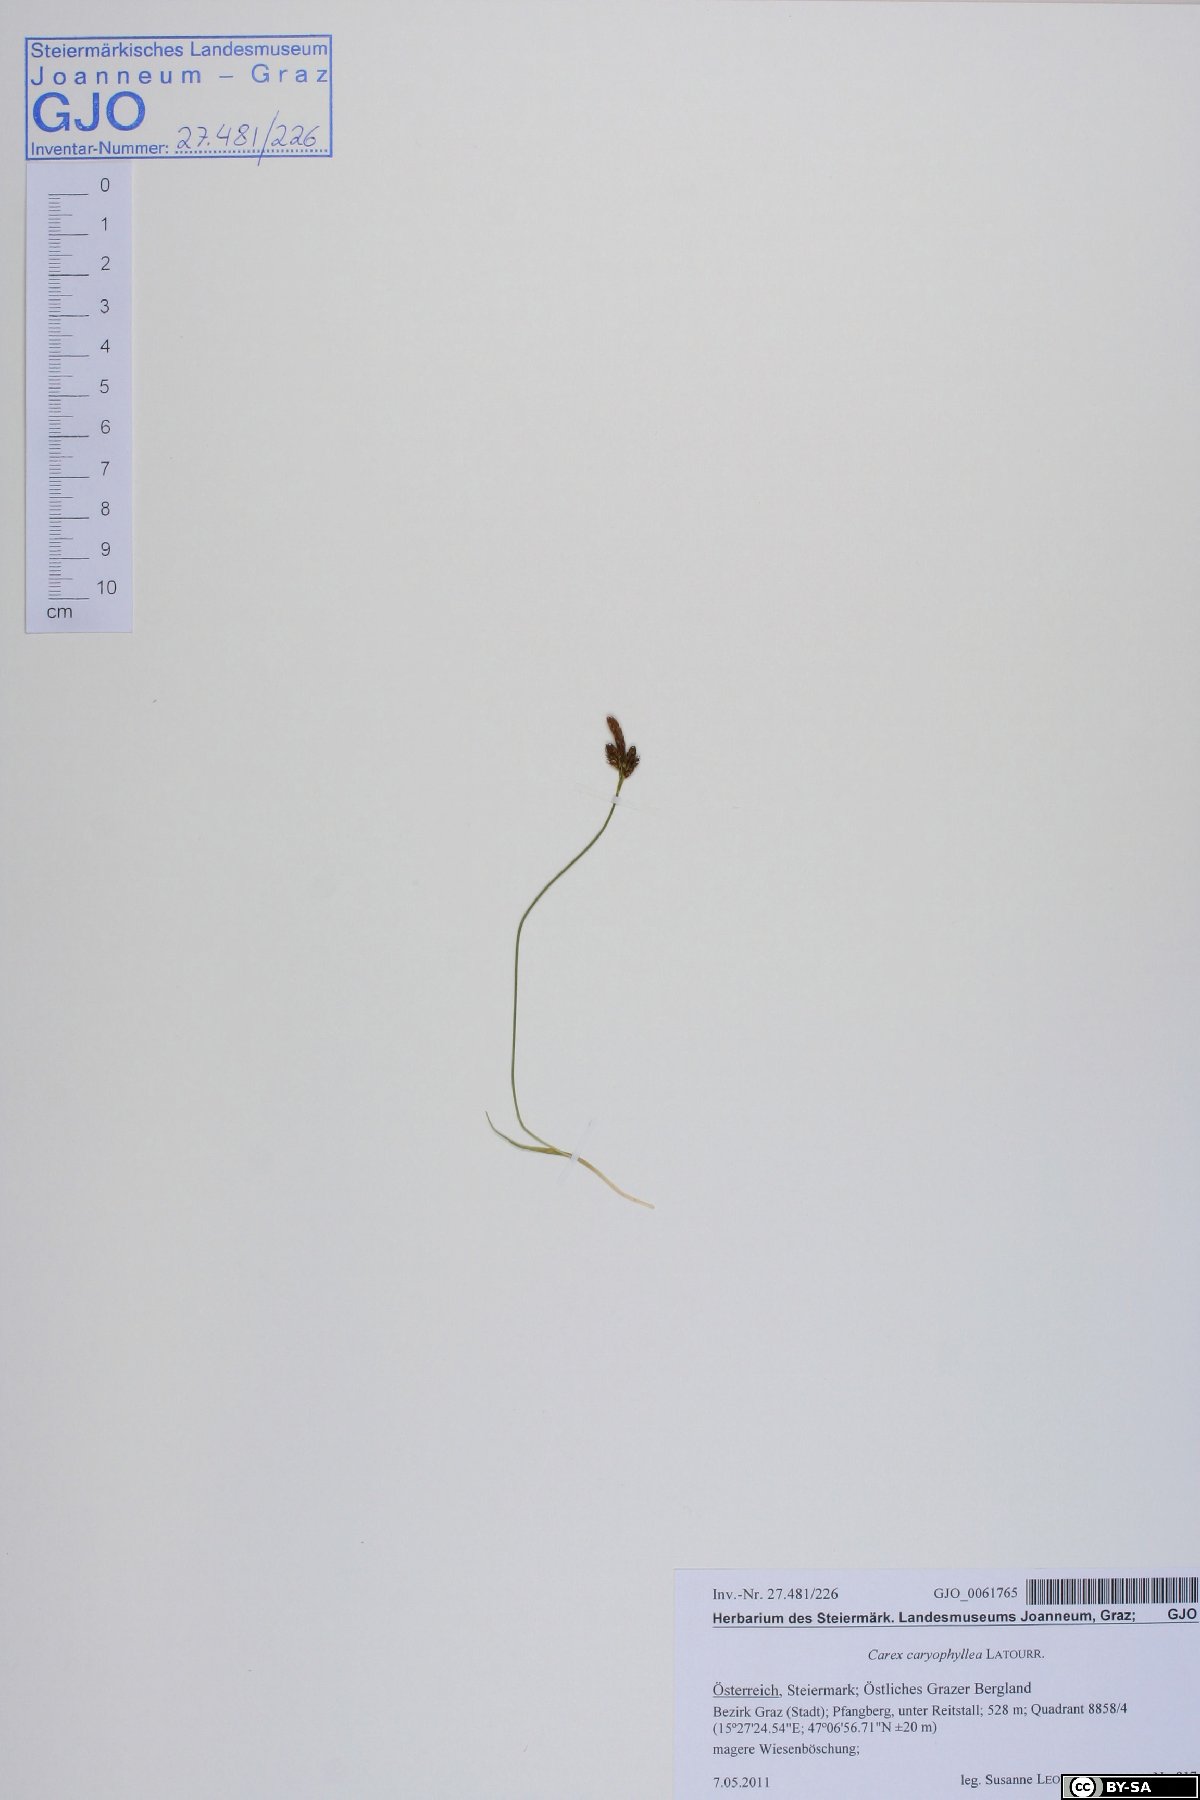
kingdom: Plantae
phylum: Tracheophyta
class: Liliopsida
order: Poales
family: Cyperaceae
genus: Carex
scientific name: Carex caryophyllea
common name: Spring sedge
